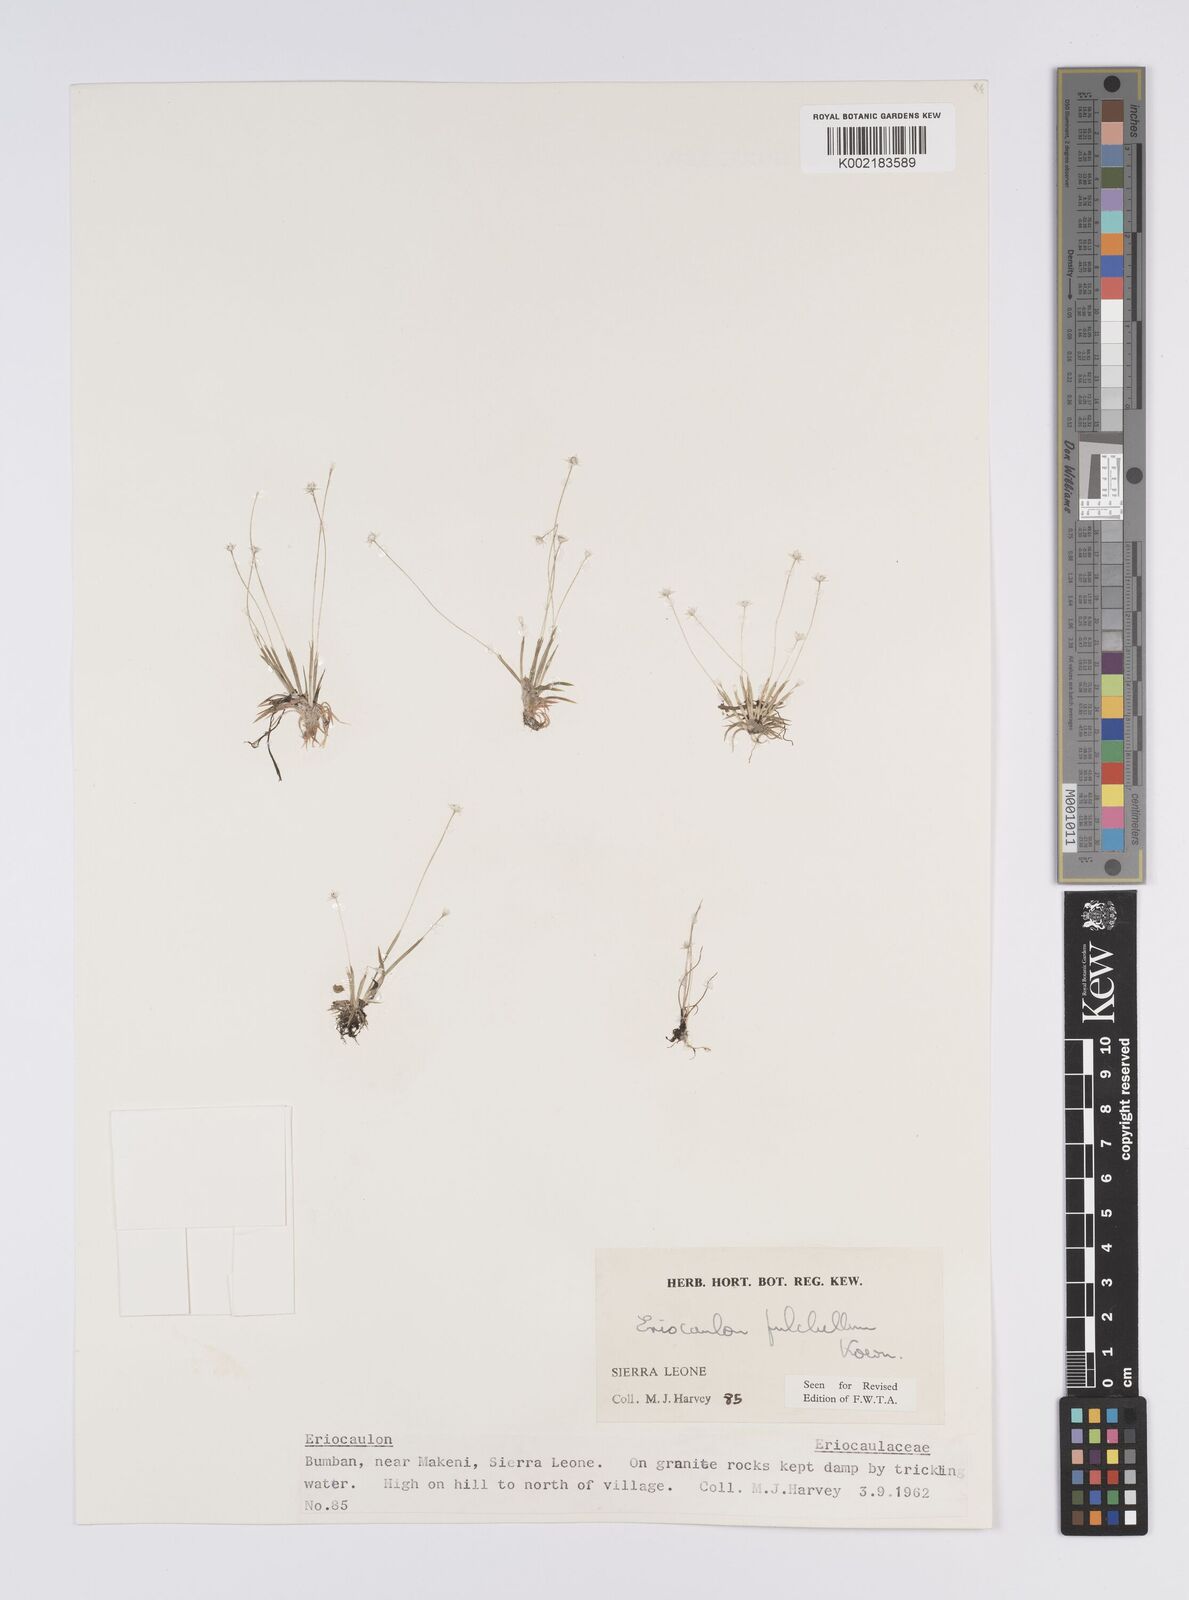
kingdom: Plantae
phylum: Tracheophyta
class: Liliopsida
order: Poales
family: Eriocaulaceae
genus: Eriocaulon
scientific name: Eriocaulon pulchellum
